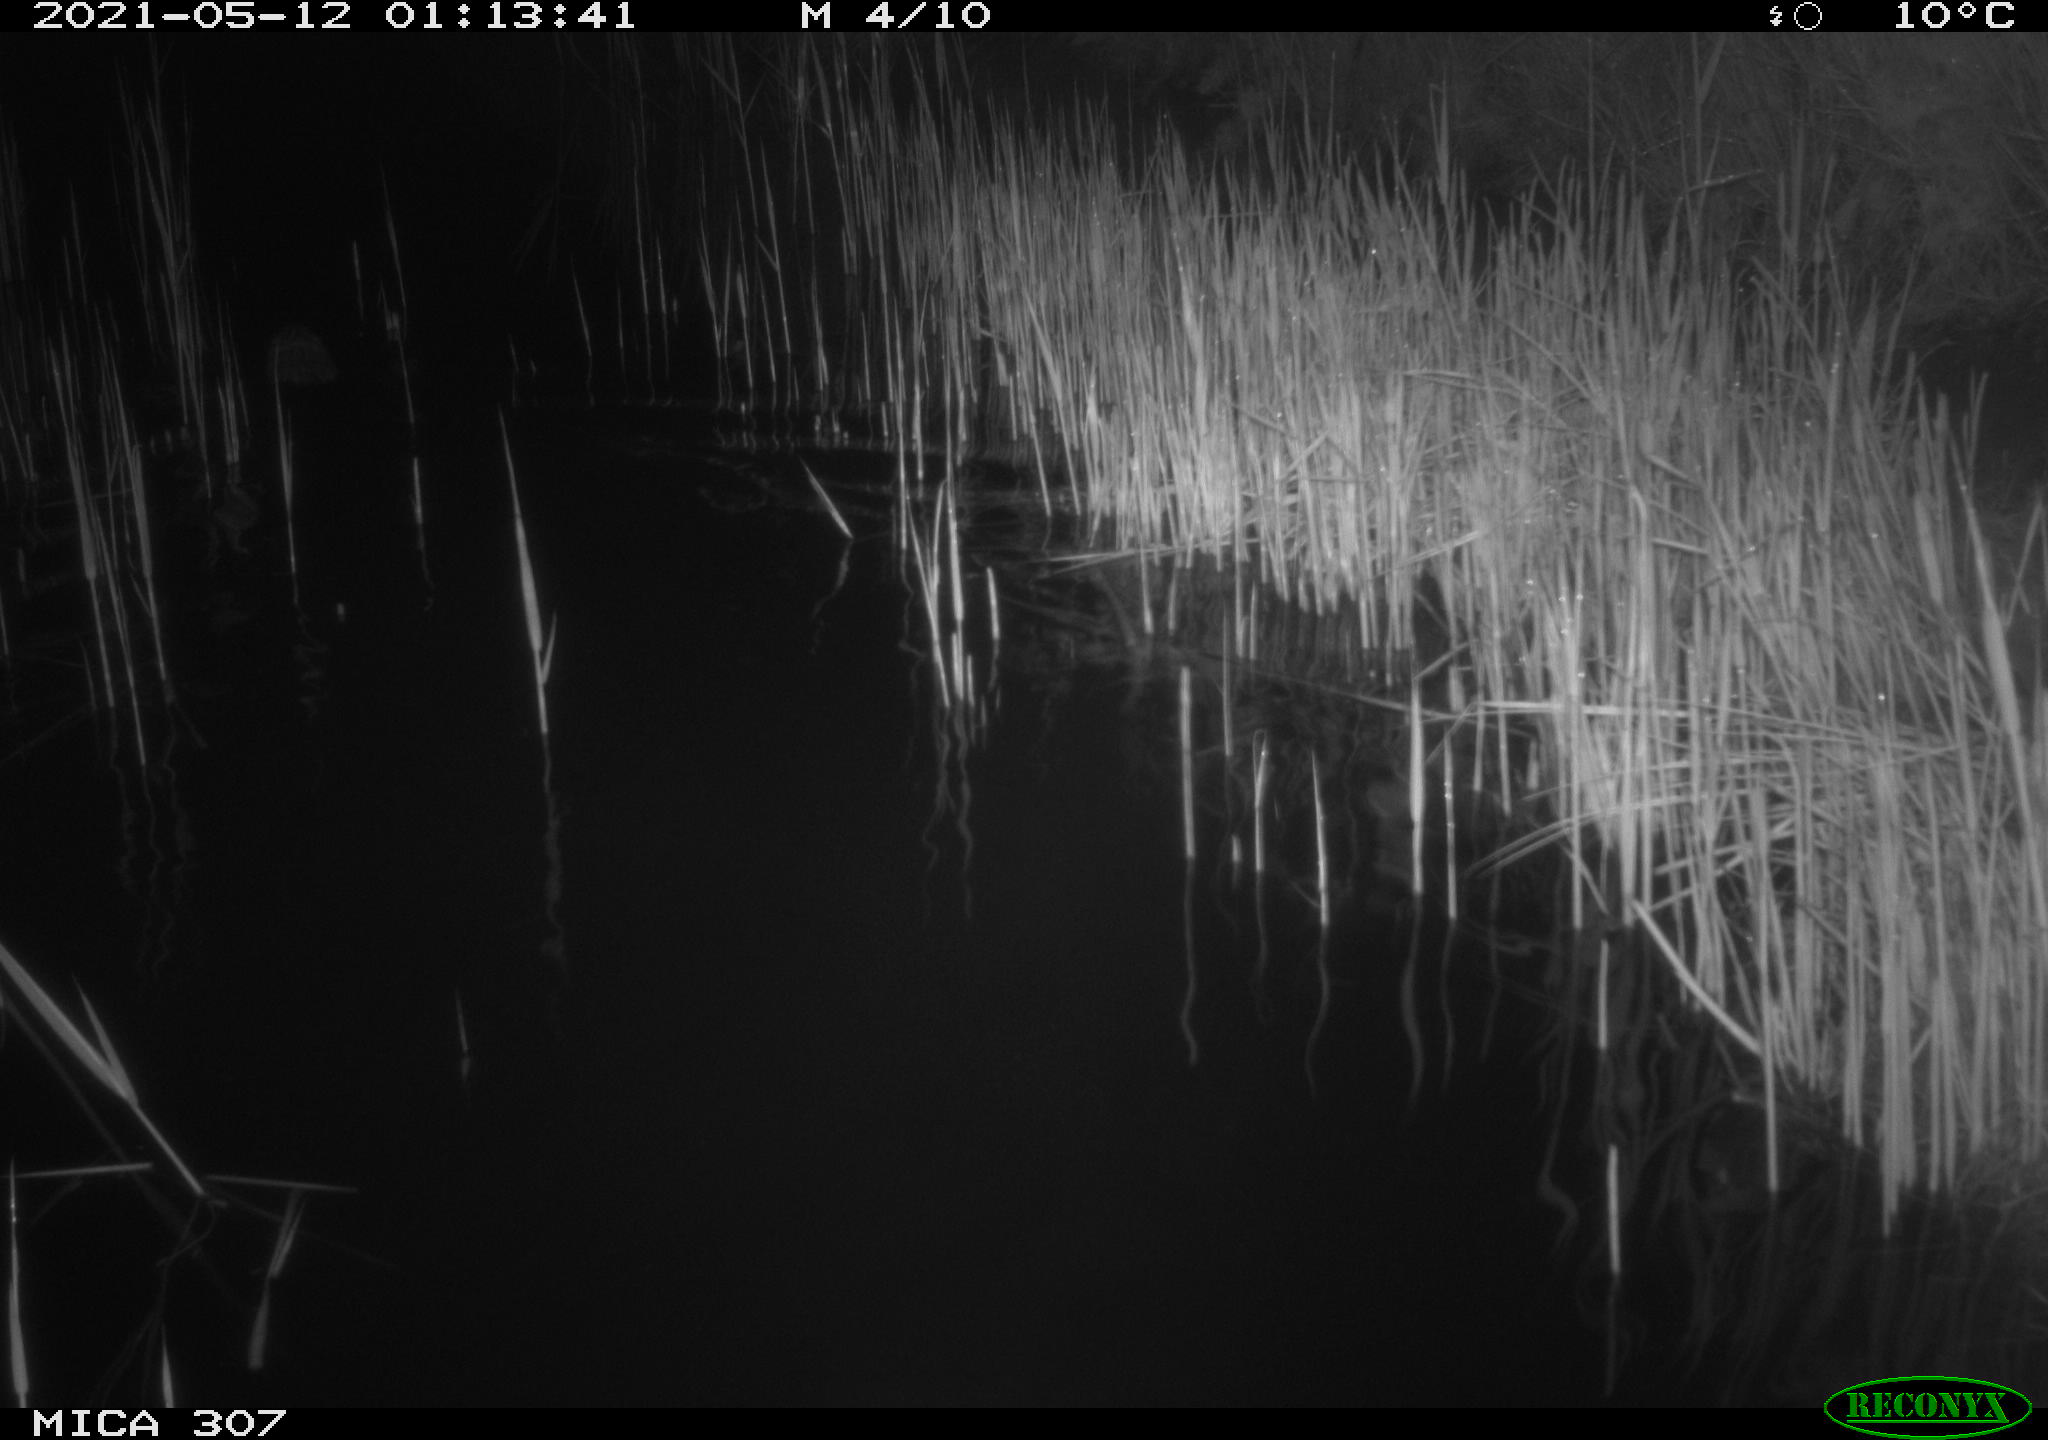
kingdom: Animalia
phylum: Chordata
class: Mammalia
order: Rodentia
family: Cricetidae
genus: Ondatra
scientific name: Ondatra zibethicus
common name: Muskrat
